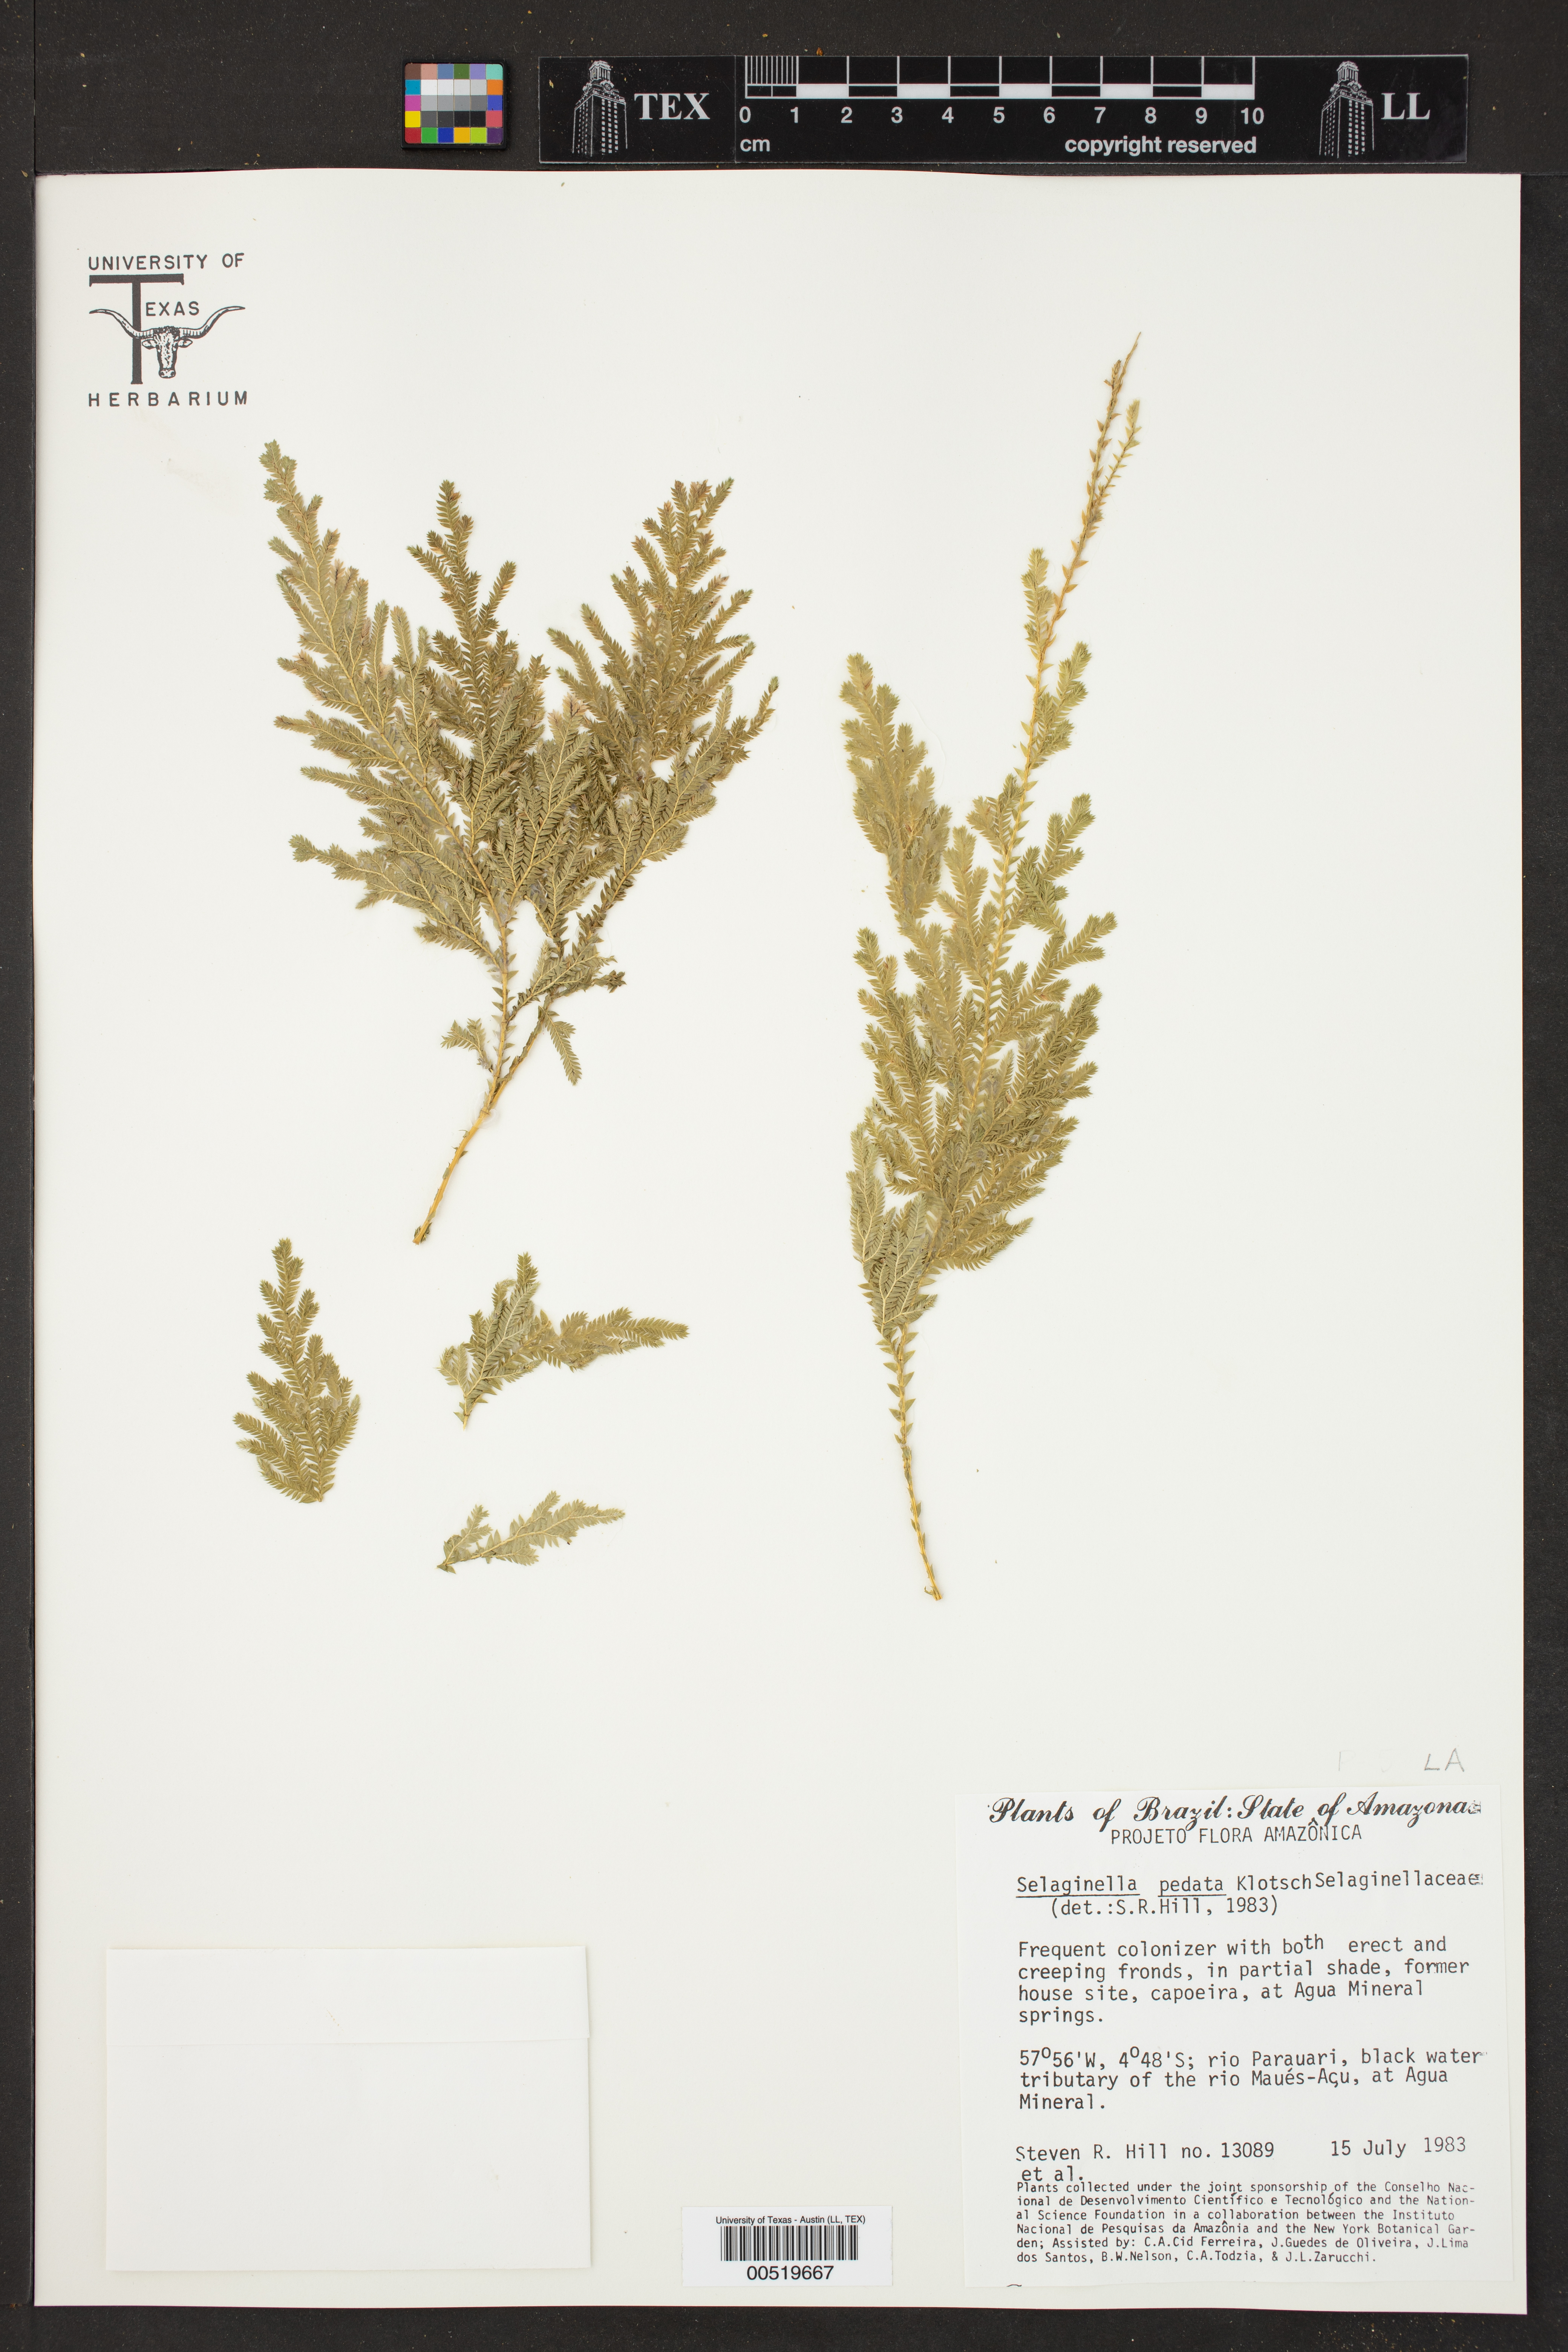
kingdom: Plantae
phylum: Tracheophyta
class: Lycopodiopsida
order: Selaginellales
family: Selaginellaceae
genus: Selaginella
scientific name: Selaginella pedata
